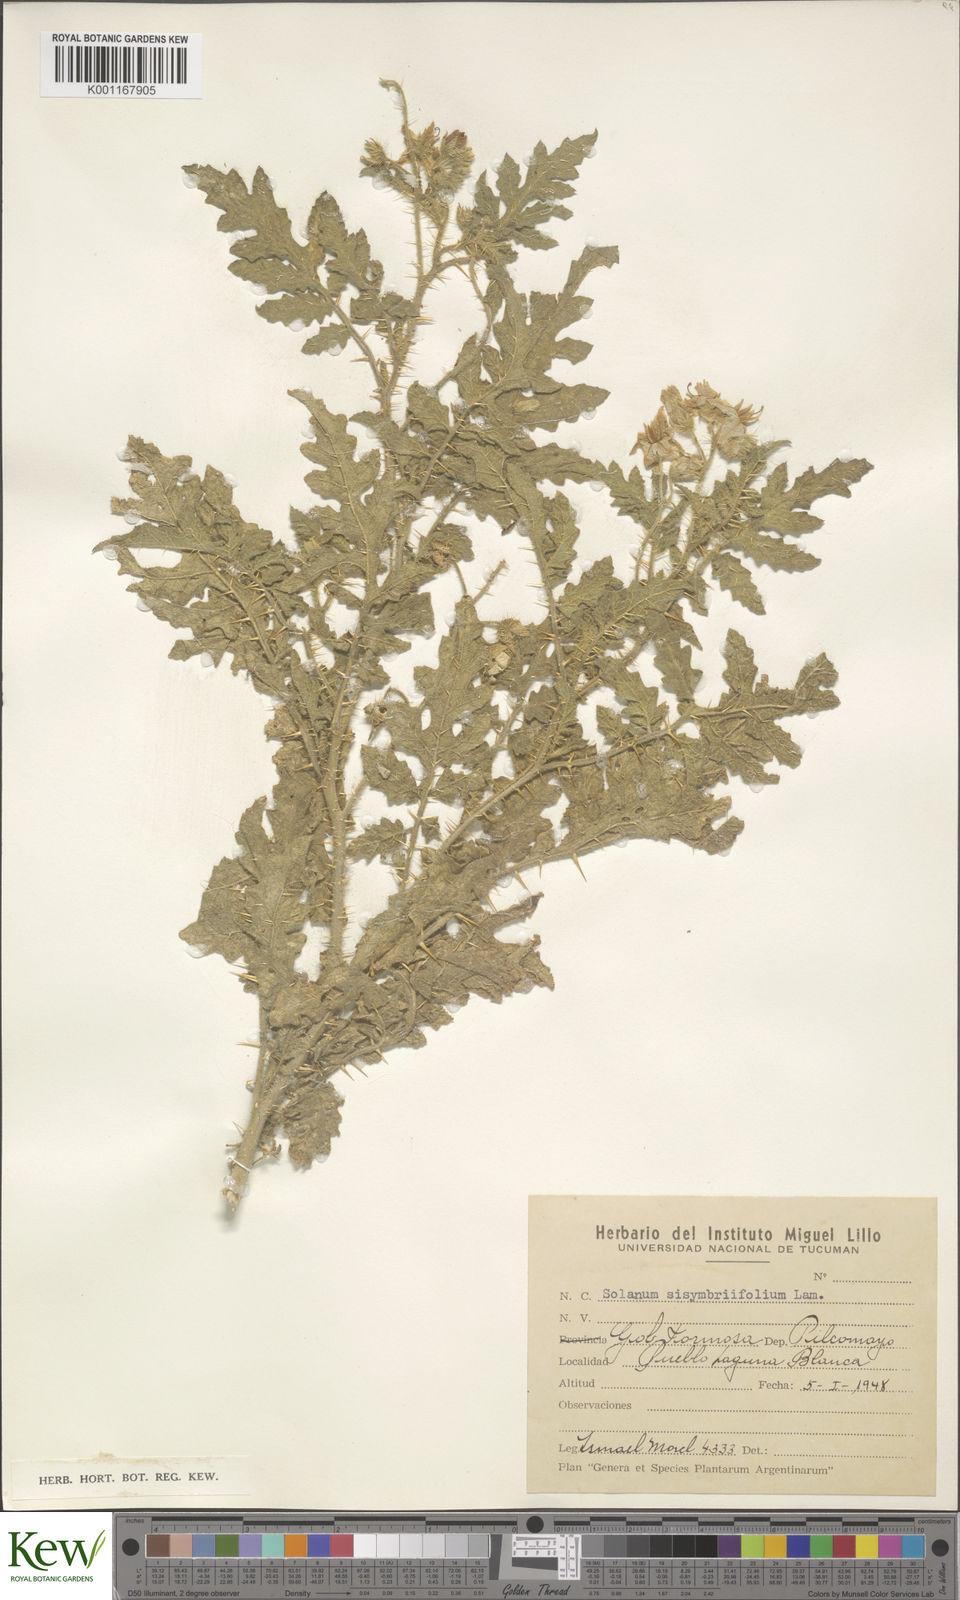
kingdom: Plantae
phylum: Tracheophyta
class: Magnoliopsida
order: Solanales
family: Solanaceae
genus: Solanum
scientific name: Solanum sisymbriifolium
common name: Red buffalo-bur
